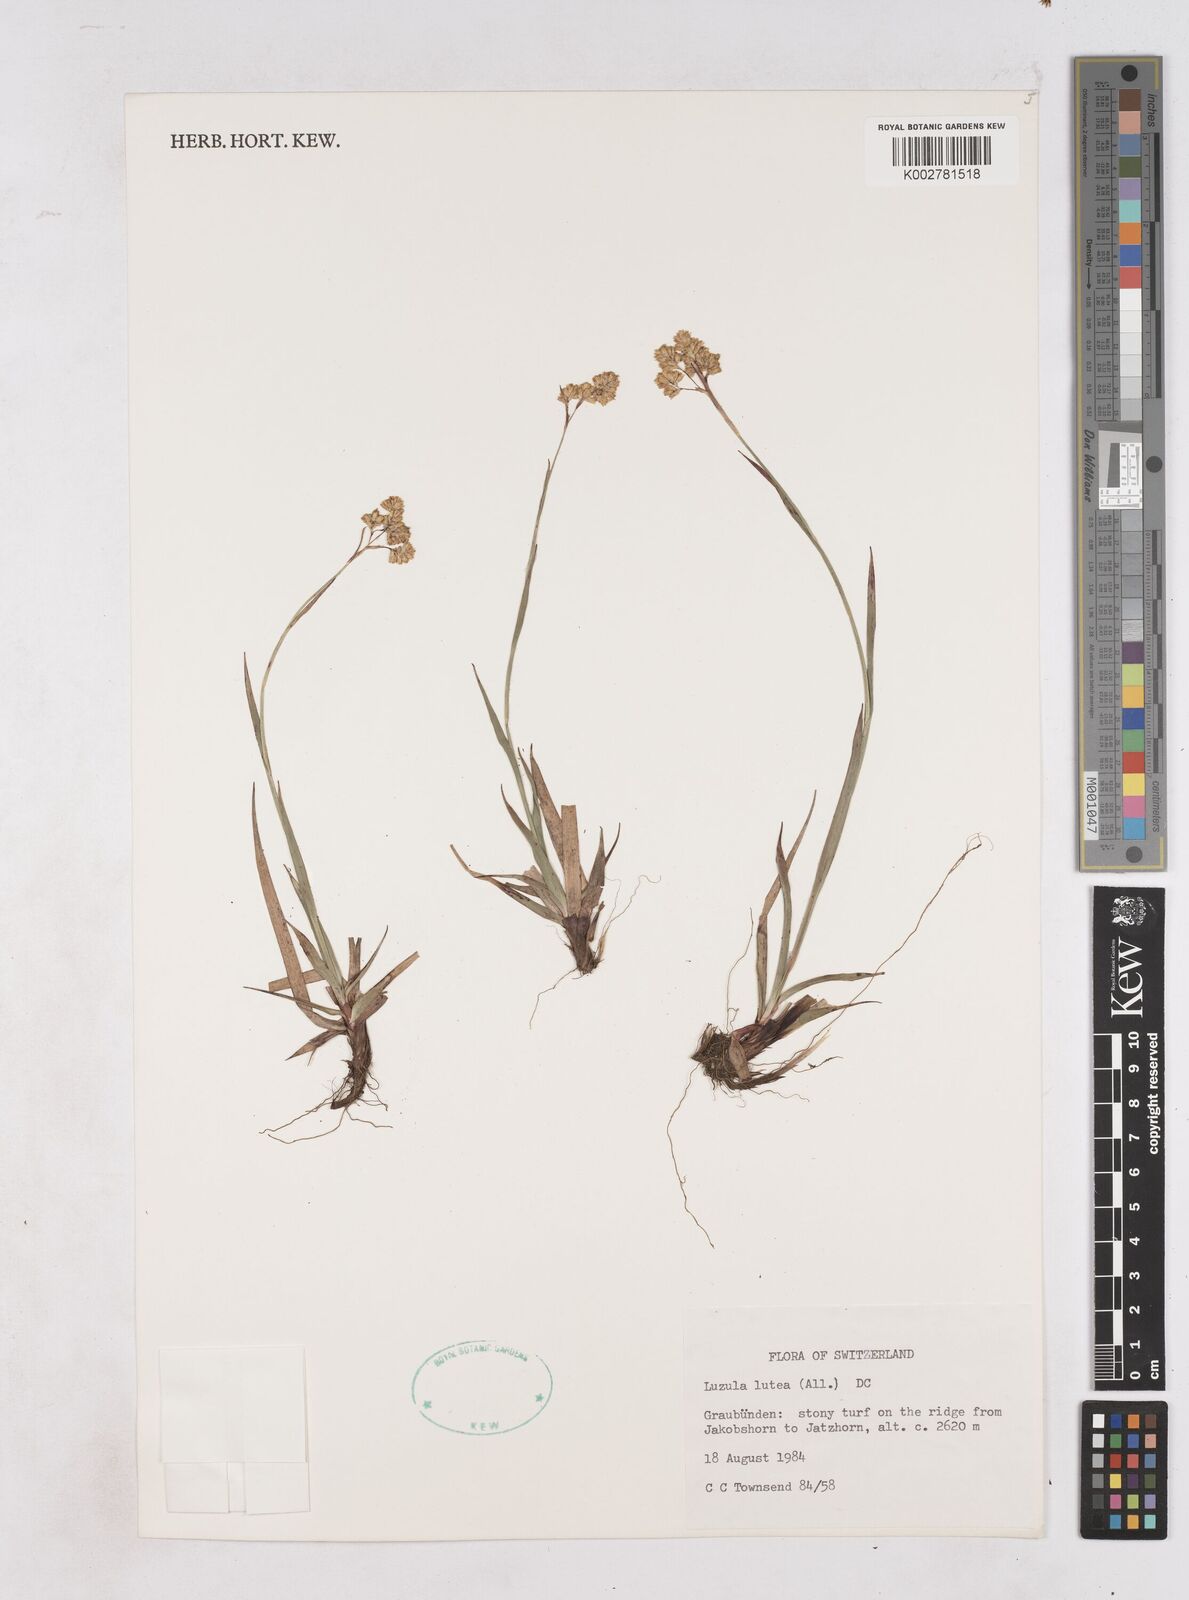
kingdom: Plantae
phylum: Tracheophyta
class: Liliopsida
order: Poales
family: Juncaceae
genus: Luzula
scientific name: Luzula lutea
